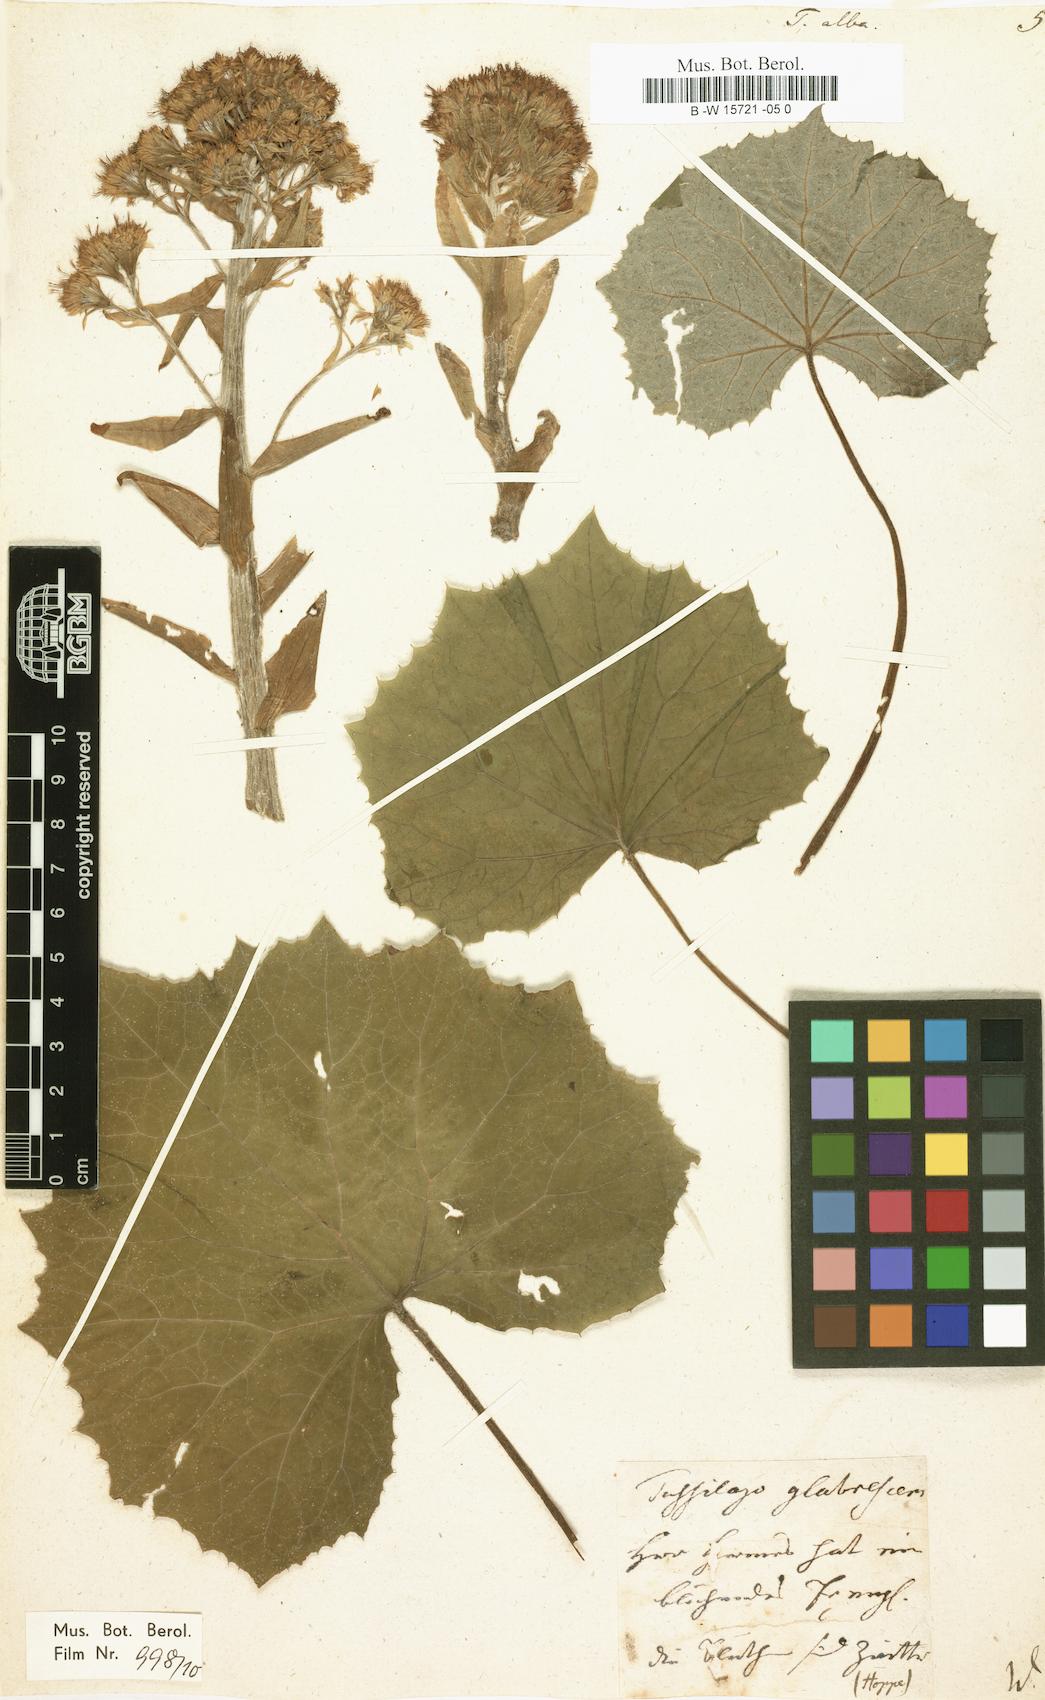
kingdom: Plantae
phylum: Tracheophyta
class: Magnoliopsida
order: Asterales
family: Asteraceae
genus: Petasites
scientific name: Petasites albus
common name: White butterbur
